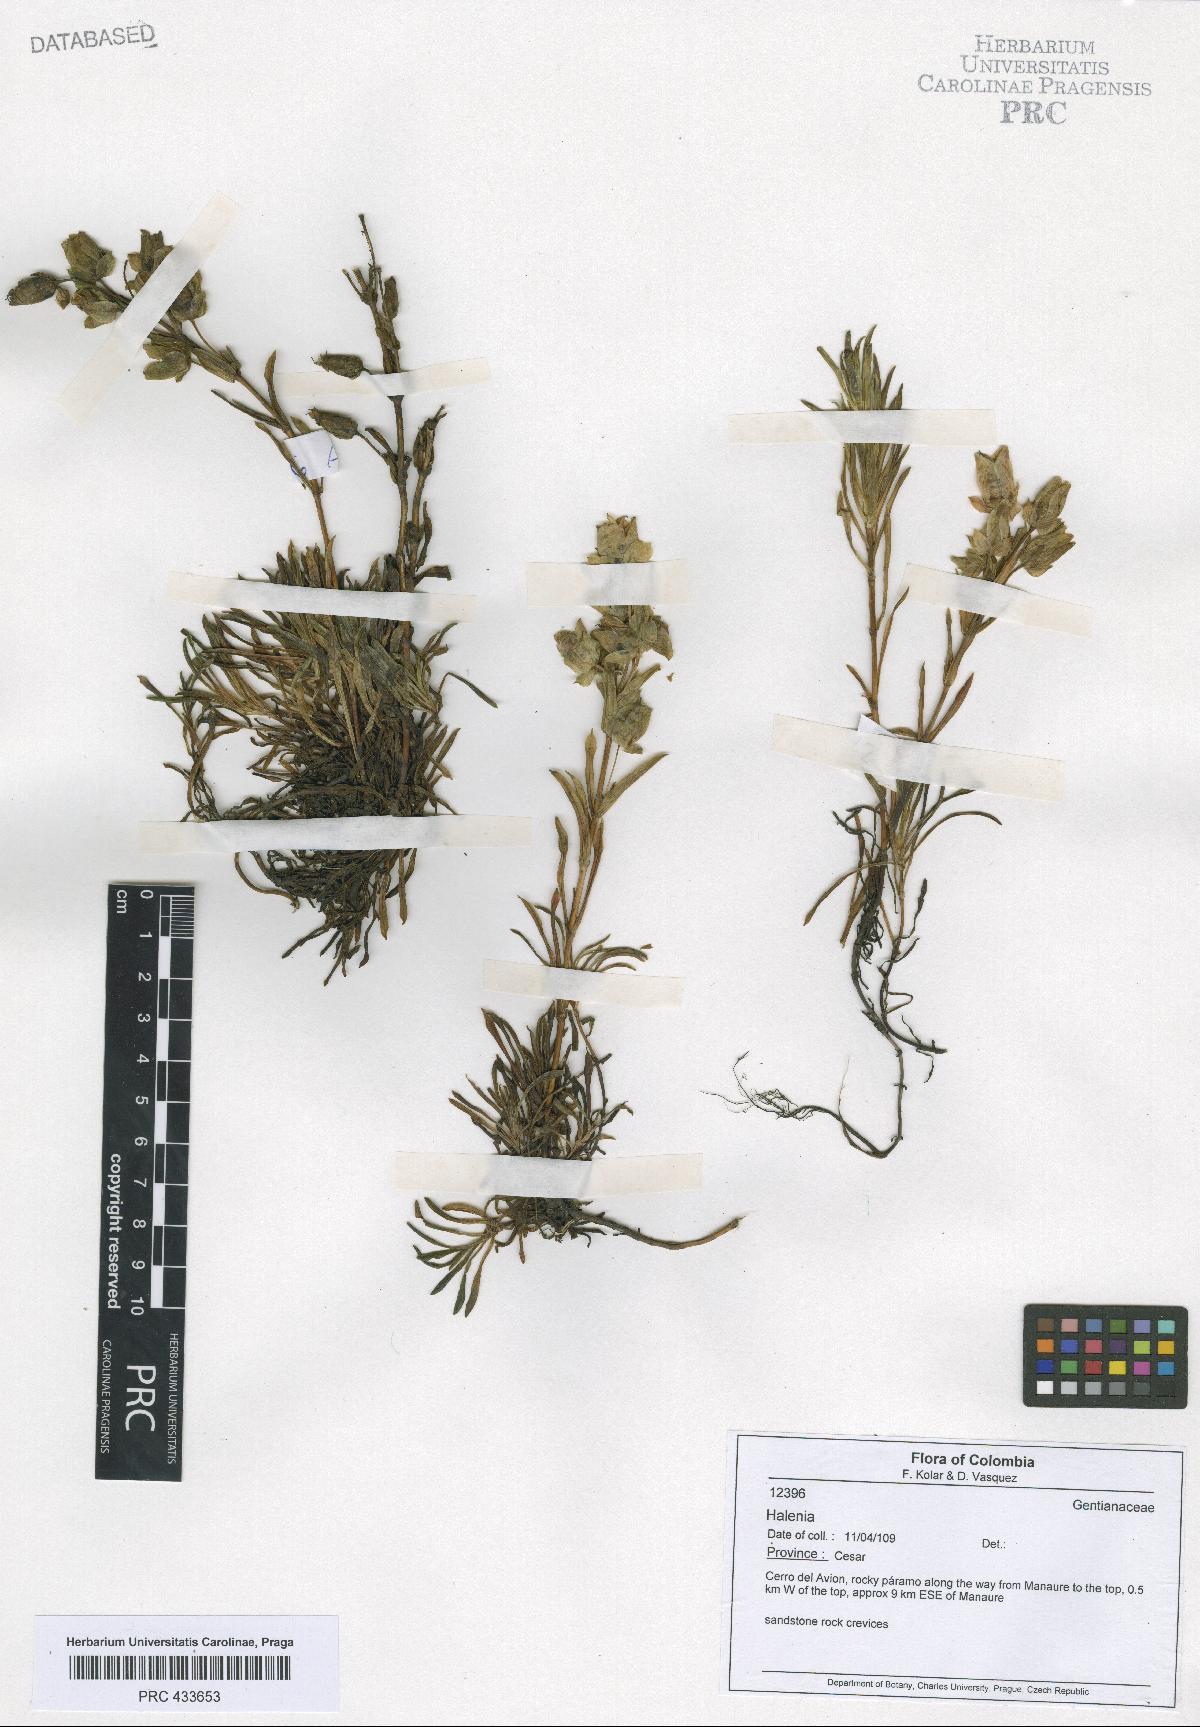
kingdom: Plantae
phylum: Tracheophyta
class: Magnoliopsida
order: Gentianales
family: Gentianaceae
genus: Halenia
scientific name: Halenia
